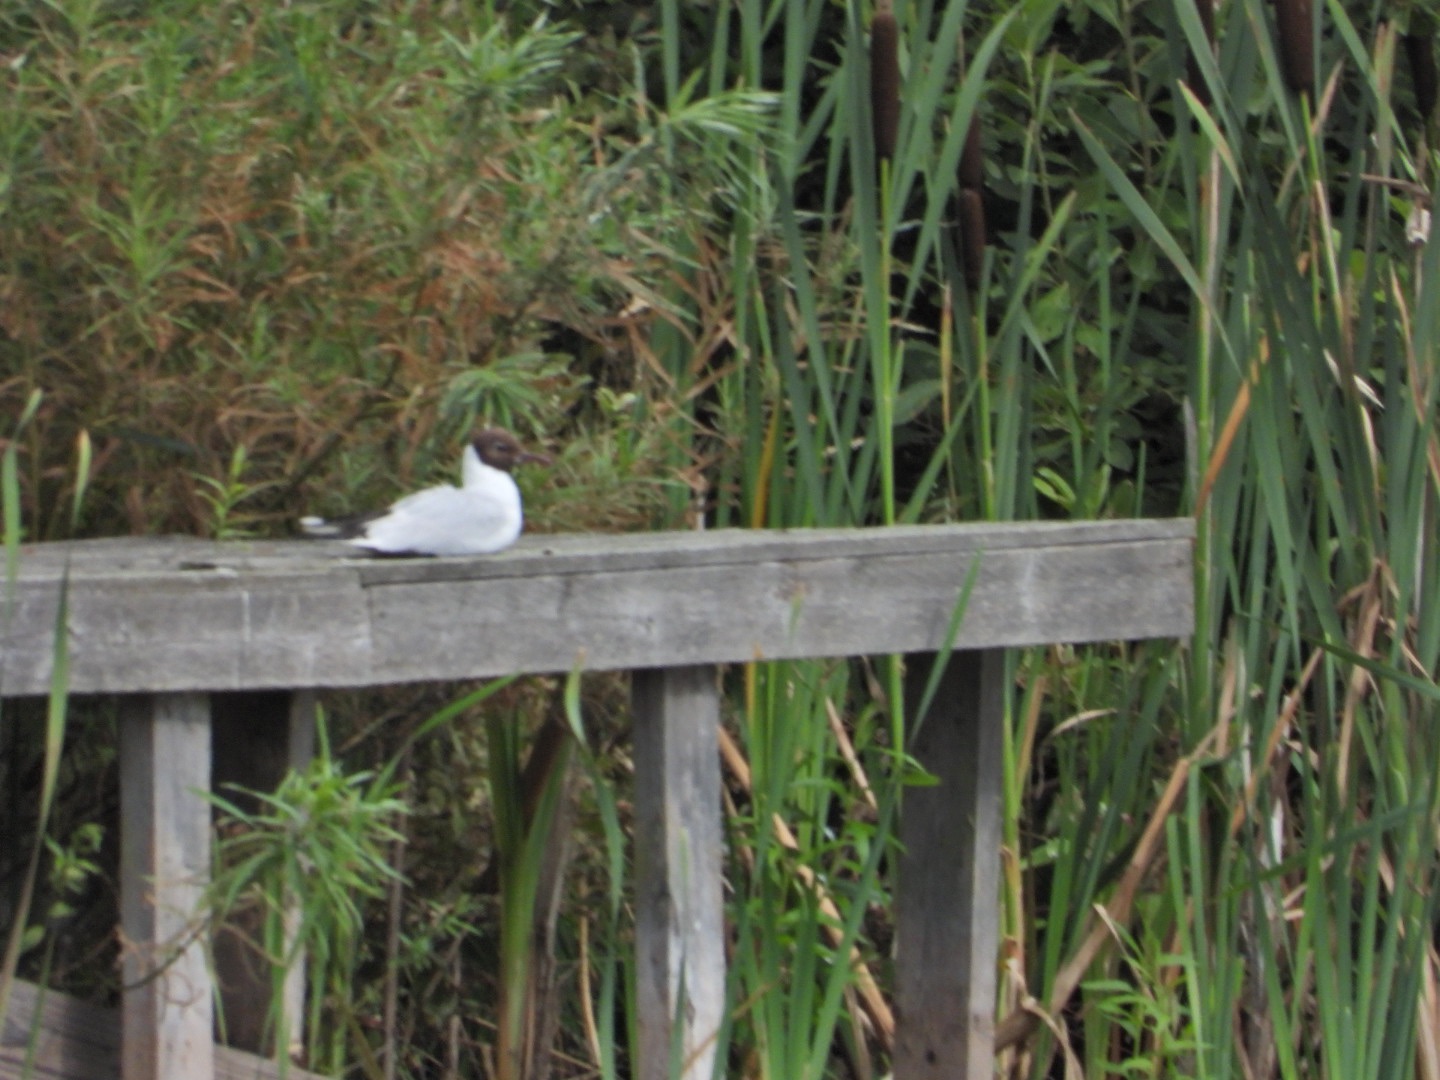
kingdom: Animalia
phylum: Chordata
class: Aves
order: Charadriiformes
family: Laridae
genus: Chroicocephalus
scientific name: Chroicocephalus ridibundus
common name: Hættemåge
